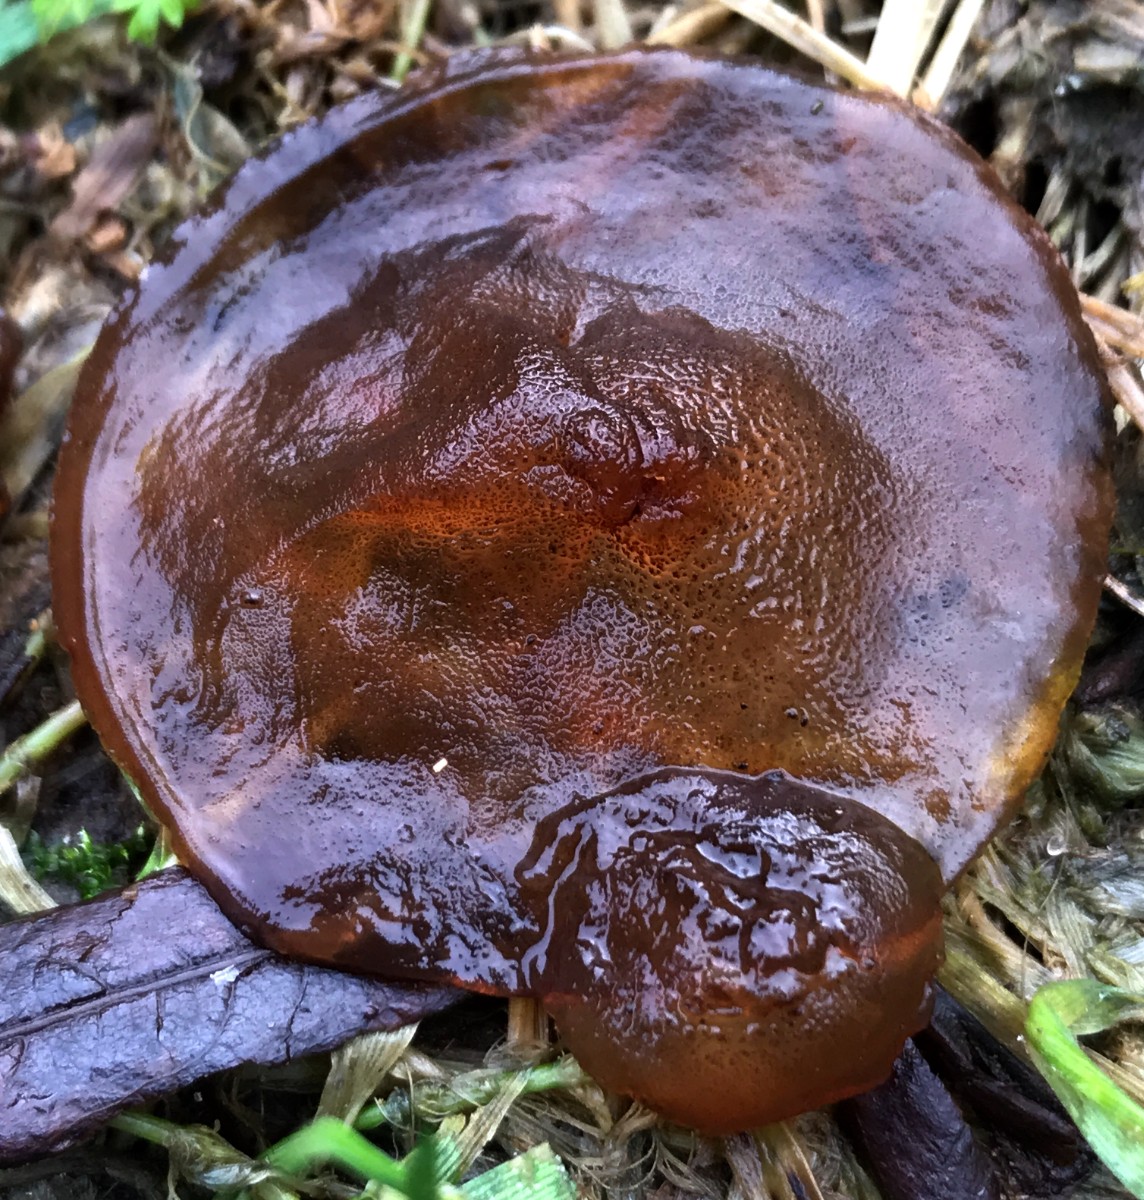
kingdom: Fungi
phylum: Basidiomycota
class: Agaricomycetes
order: Auriculariales
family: Auriculariaceae
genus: Exidia
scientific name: Exidia recisa
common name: pile-bævretop
